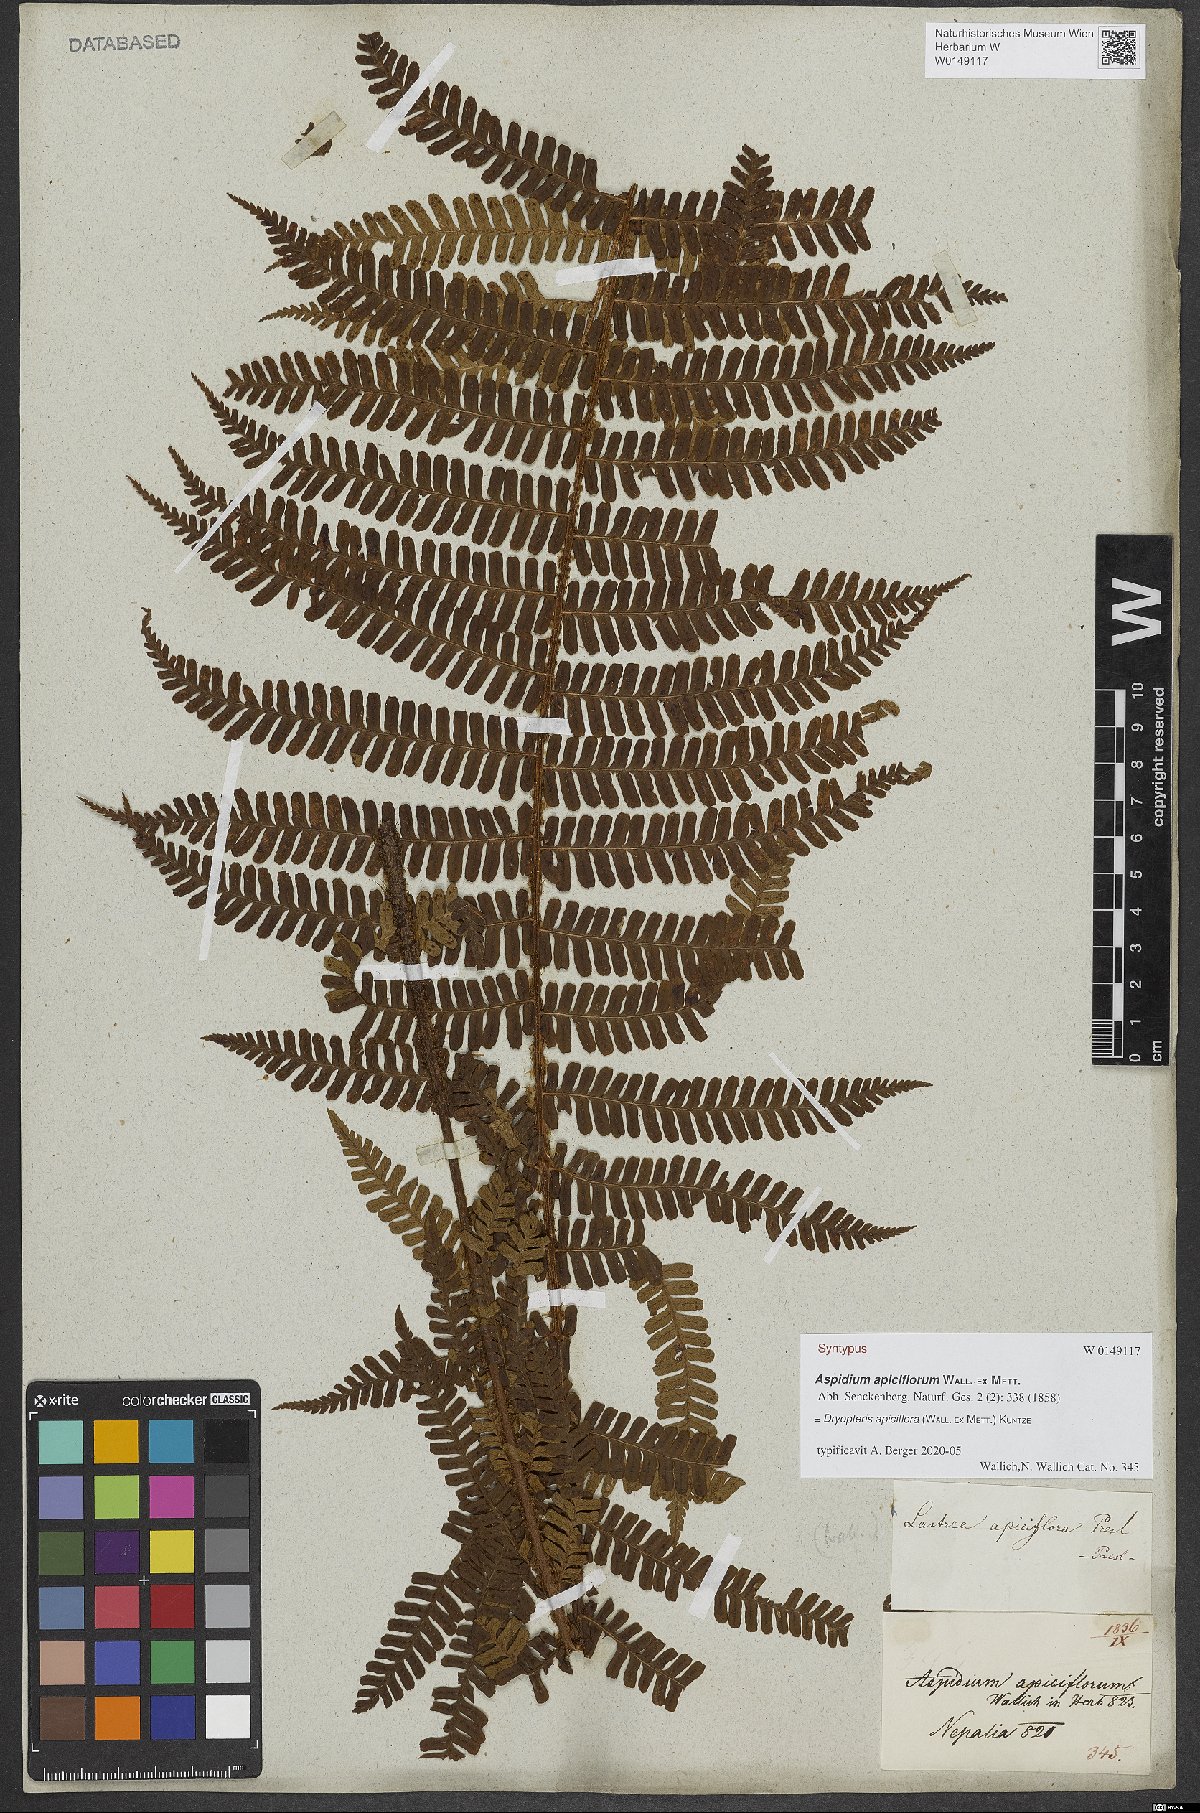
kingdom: Plantae
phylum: Tracheophyta
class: Polypodiopsida
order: Polypodiales
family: Dryopteridaceae
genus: Dryopteris
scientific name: Dryopteris apiciflora
